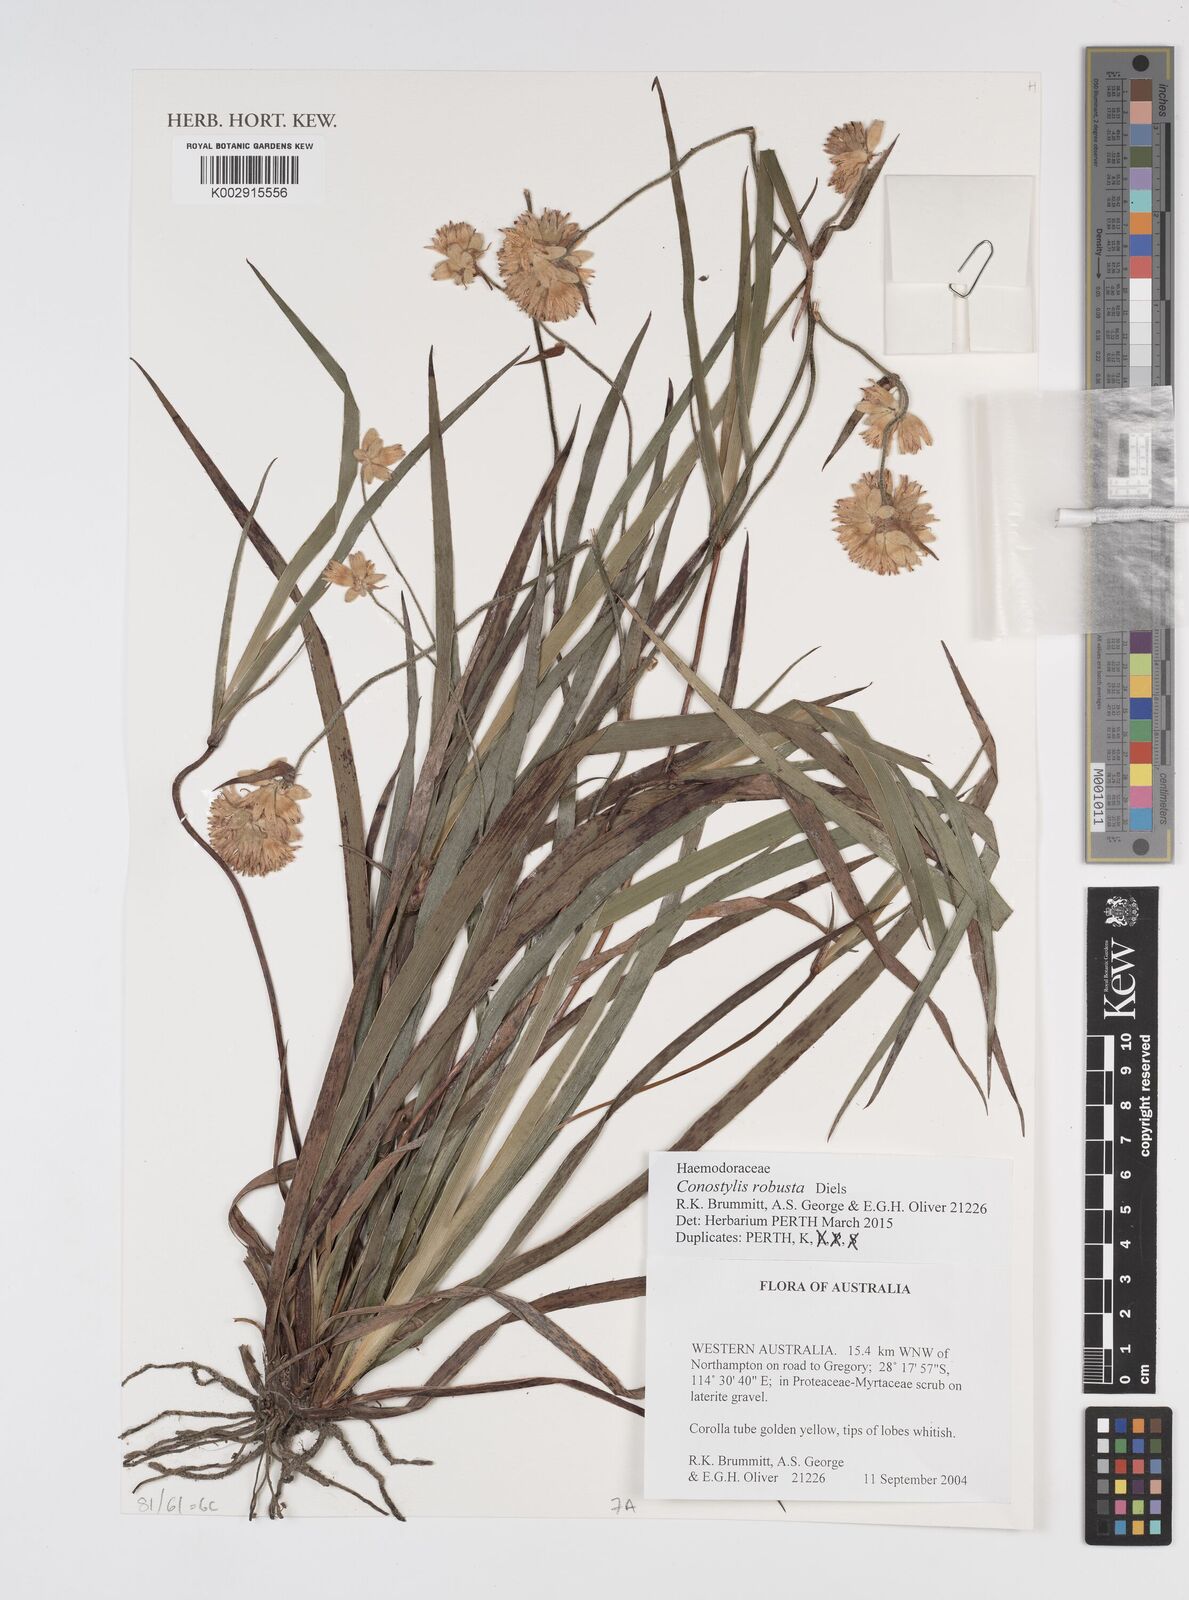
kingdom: Plantae
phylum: Tracheophyta
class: Liliopsida
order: Commelinales
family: Haemodoraceae
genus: Conostylis
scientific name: Conostylis robusta
